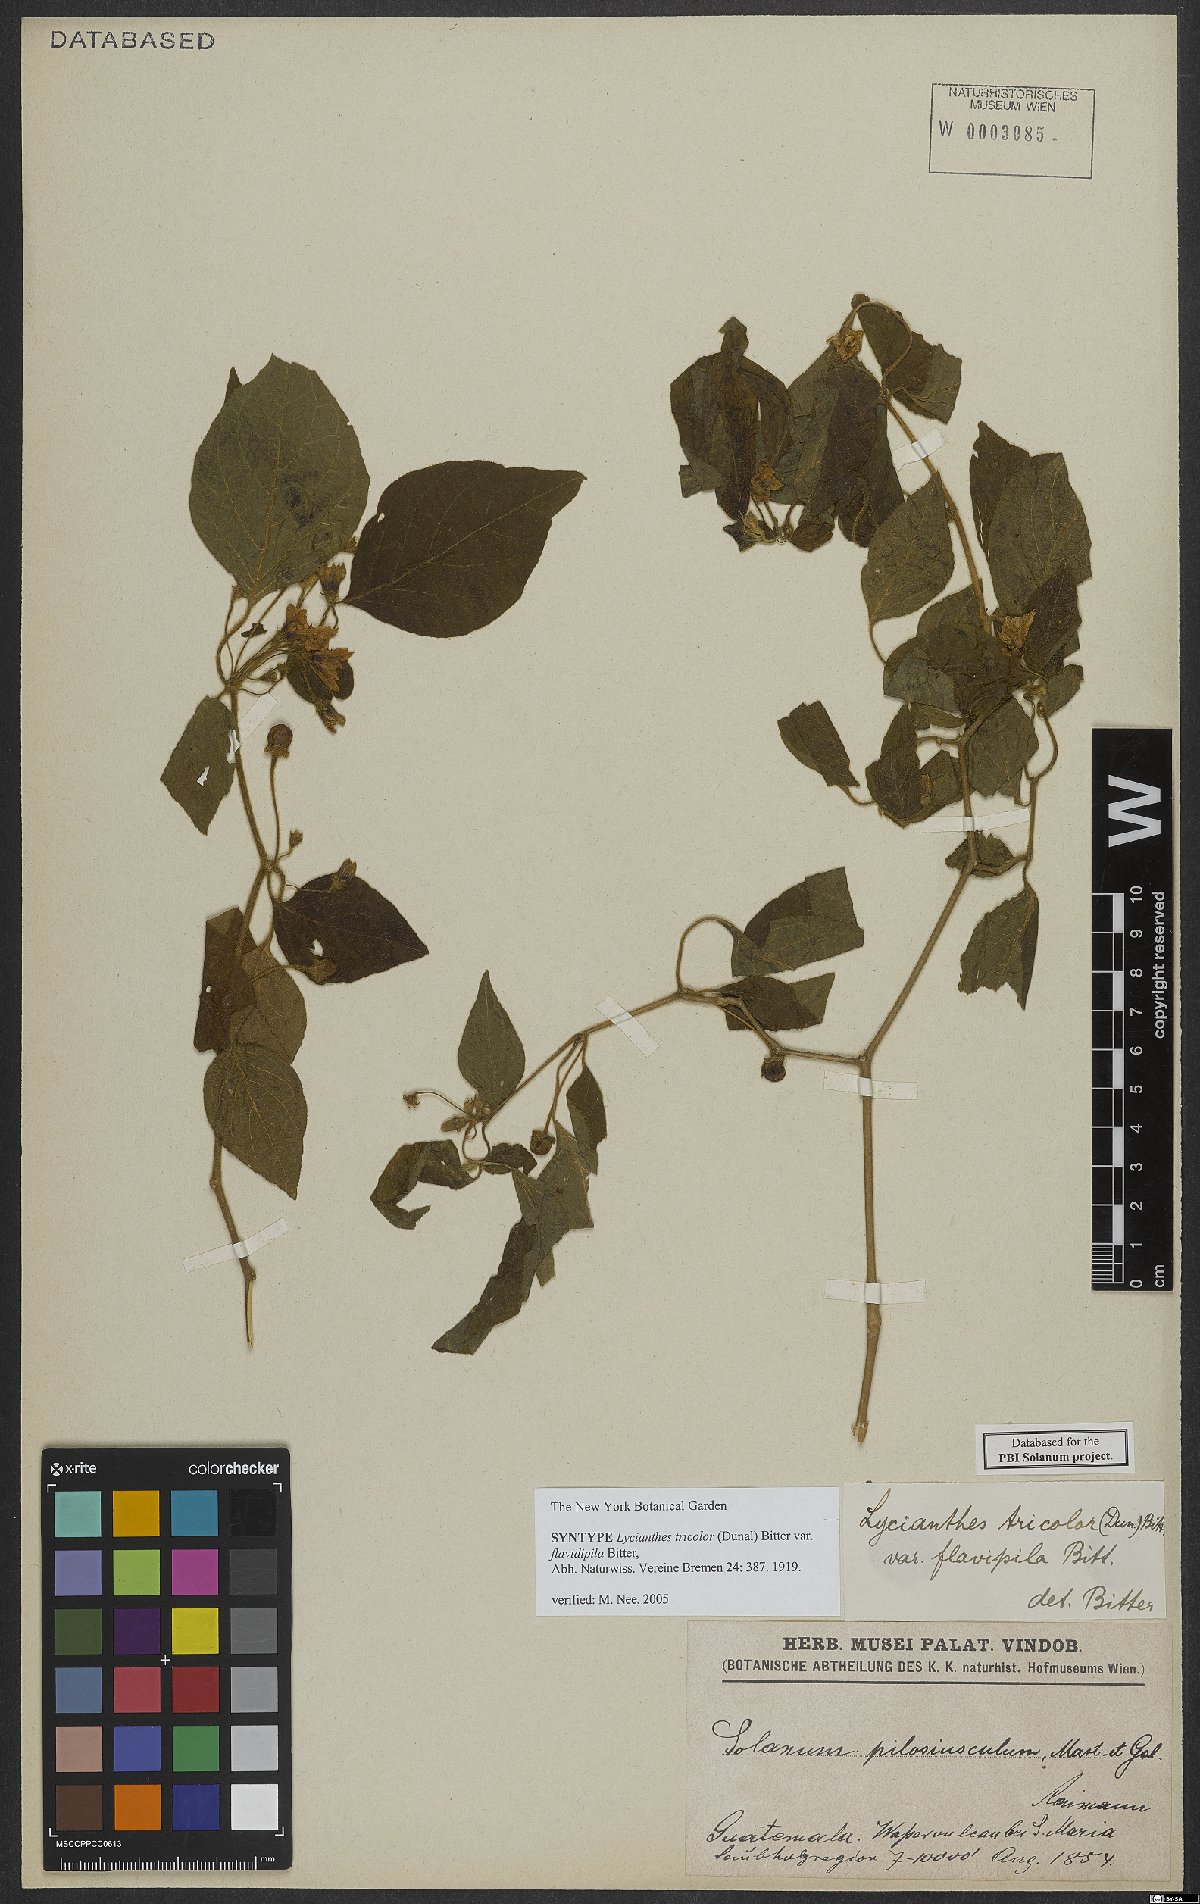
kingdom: Plantae
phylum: Tracheophyta
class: Magnoliopsida
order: Solanales
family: Solanaceae
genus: Lycianthes
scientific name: Lycianthes tricolor
